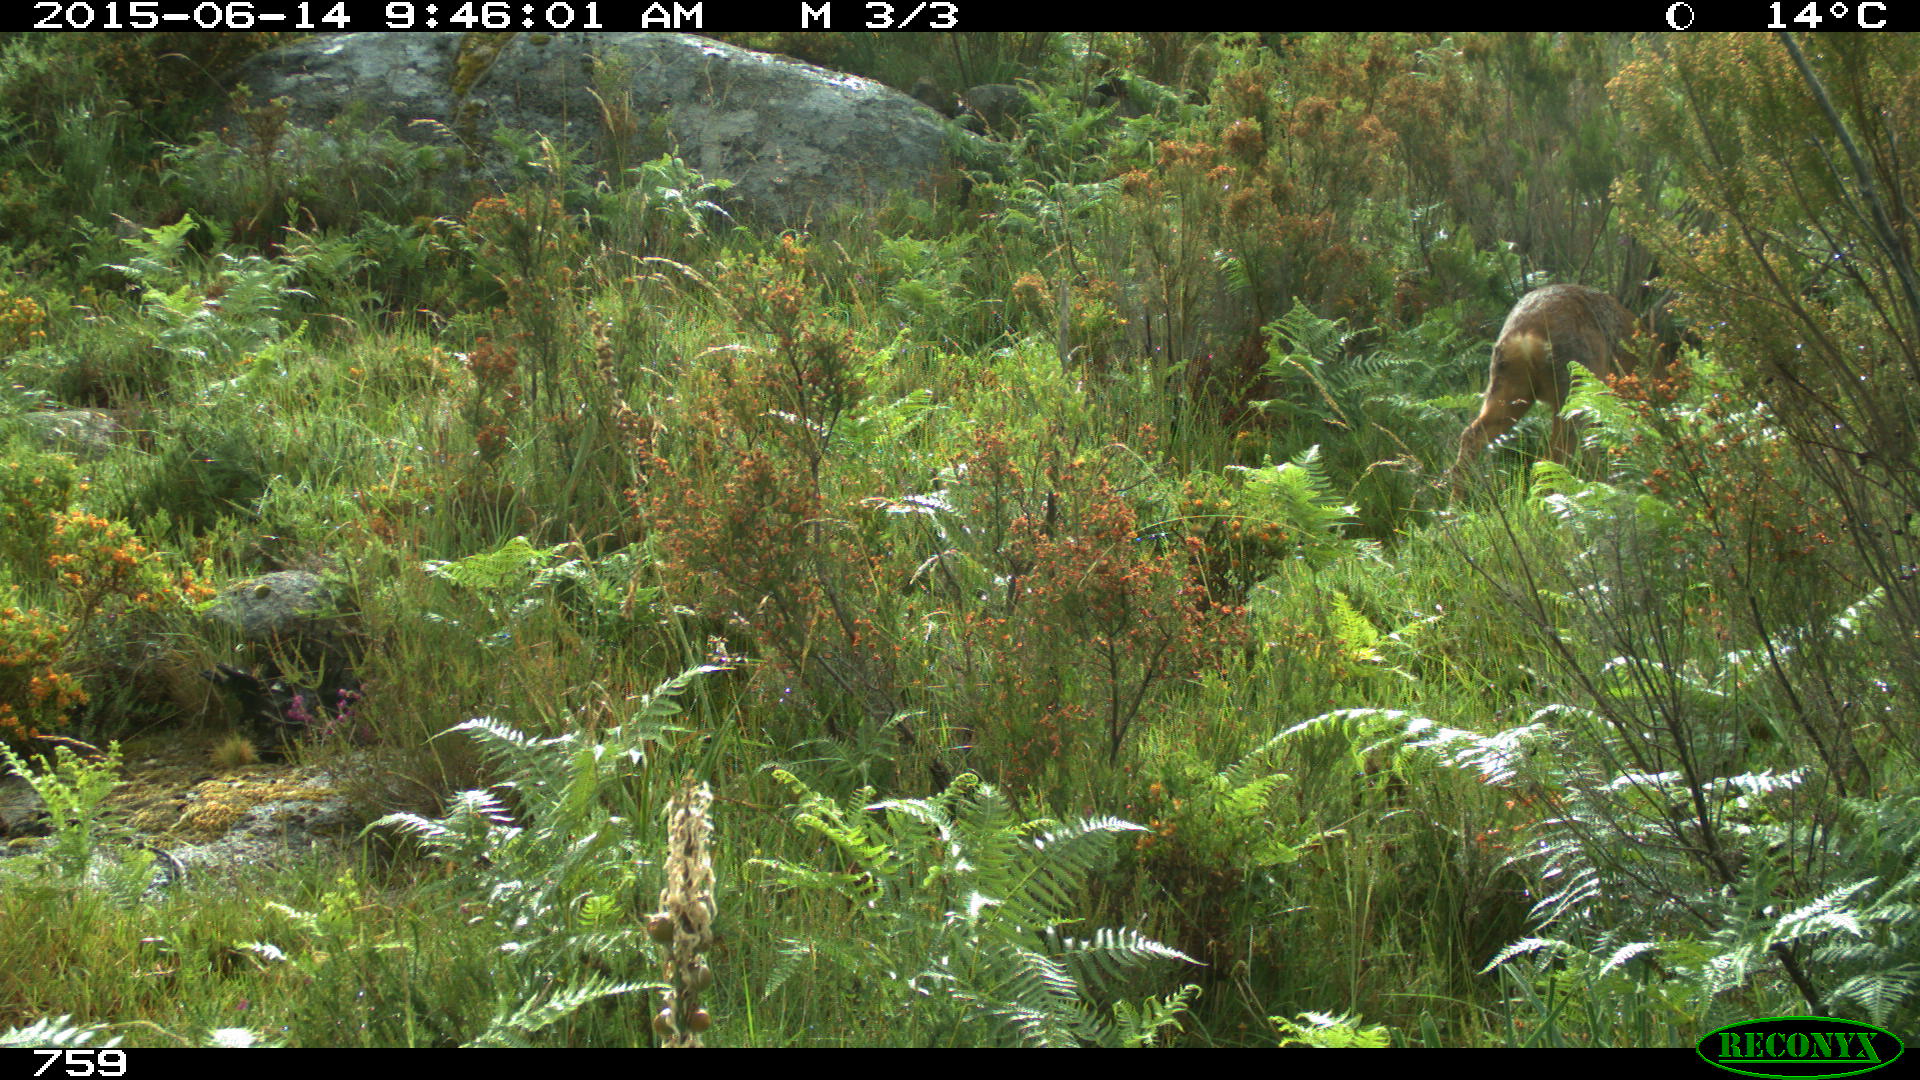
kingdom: Animalia
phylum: Chordata
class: Mammalia
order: Artiodactyla
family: Cervidae
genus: Capreolus
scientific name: Capreolus capreolus
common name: Western roe deer
